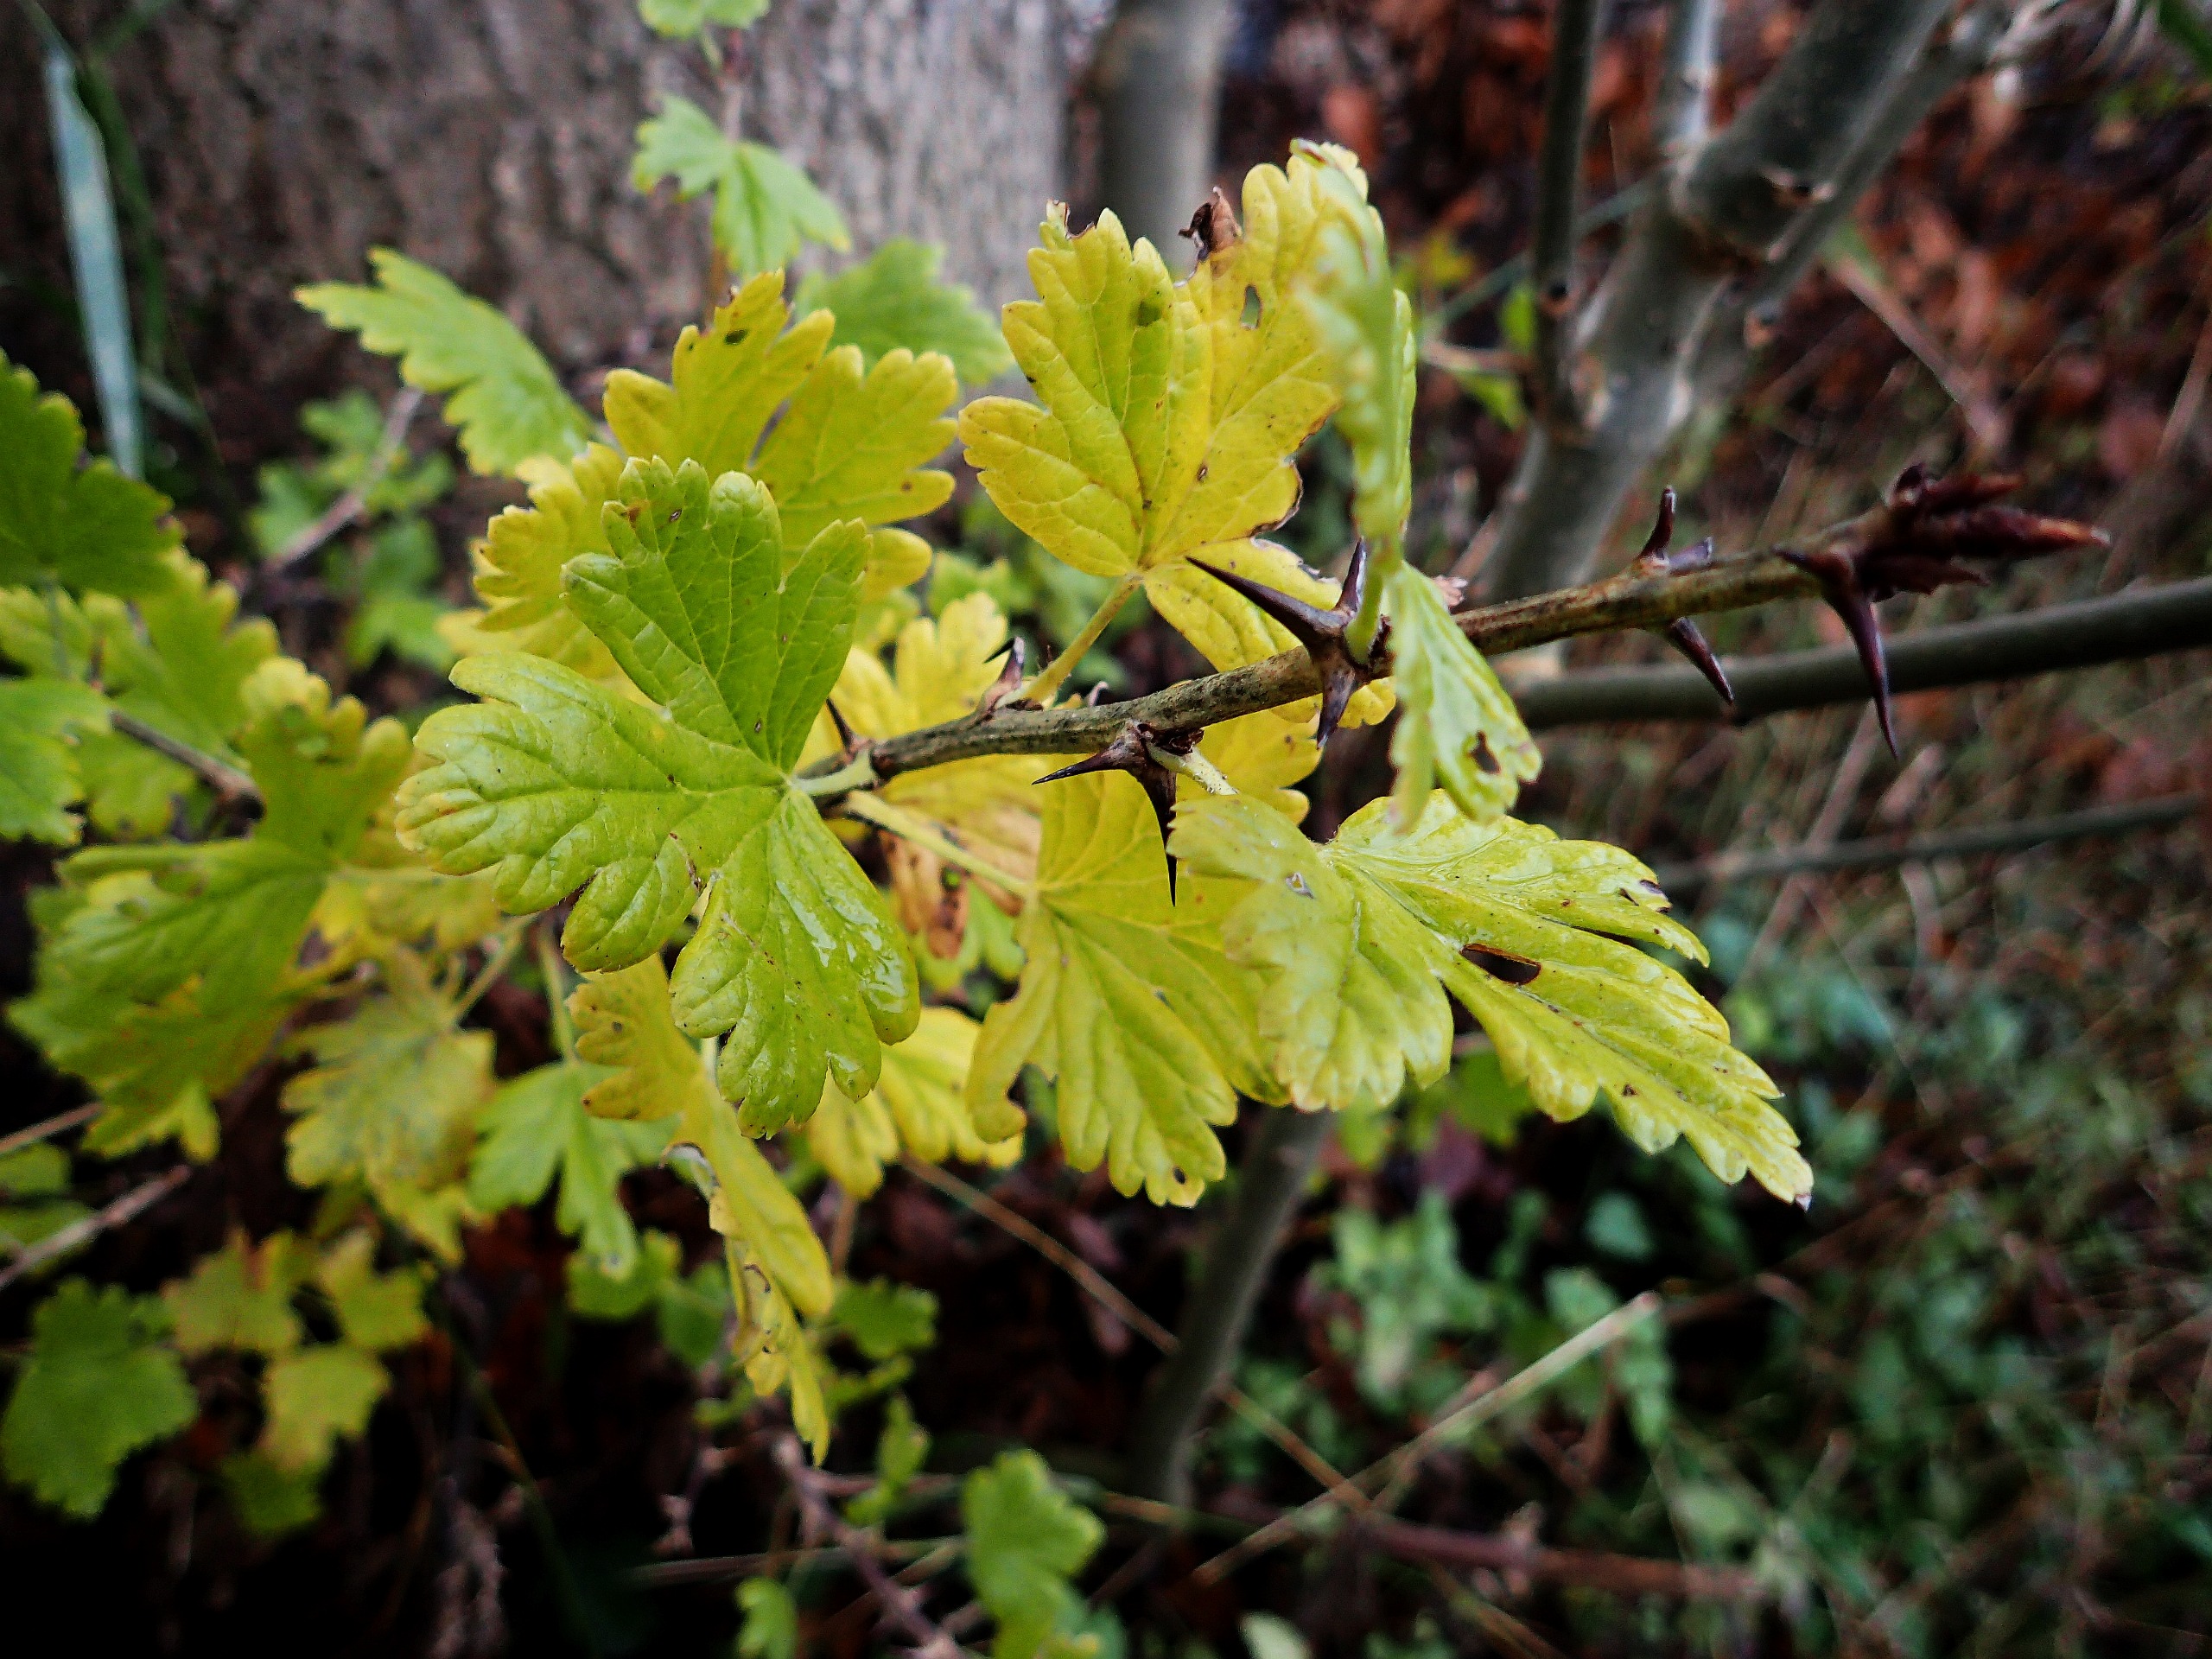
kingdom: Plantae
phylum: Tracheophyta
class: Magnoliopsida
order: Saxifragales
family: Grossulariaceae
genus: Ribes
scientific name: Ribes uva-crispa
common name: Stikkelsbær
